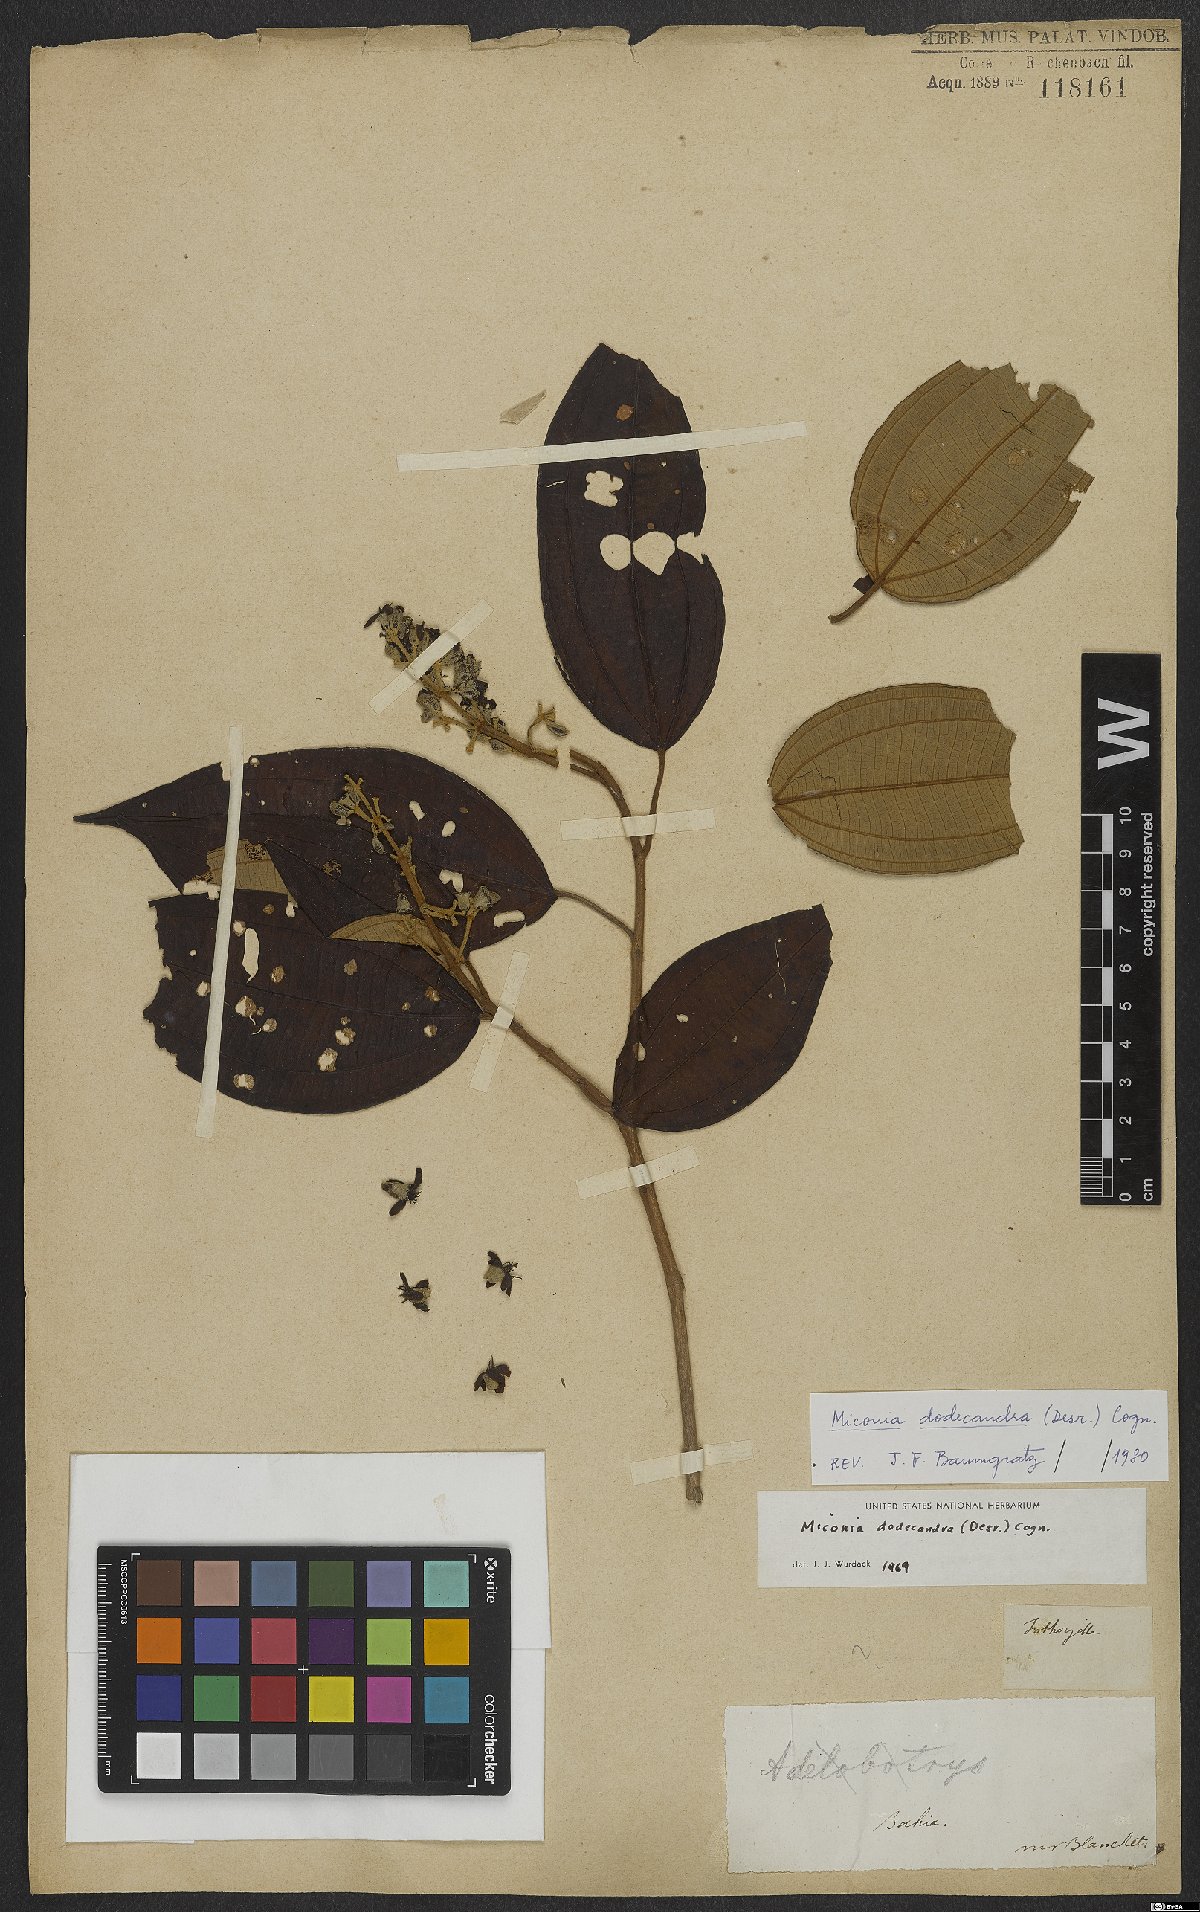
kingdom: Plantae
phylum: Tracheophyta
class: Magnoliopsida
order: Myrtales
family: Melastomataceae
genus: Miconia
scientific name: Miconia dodecandra
